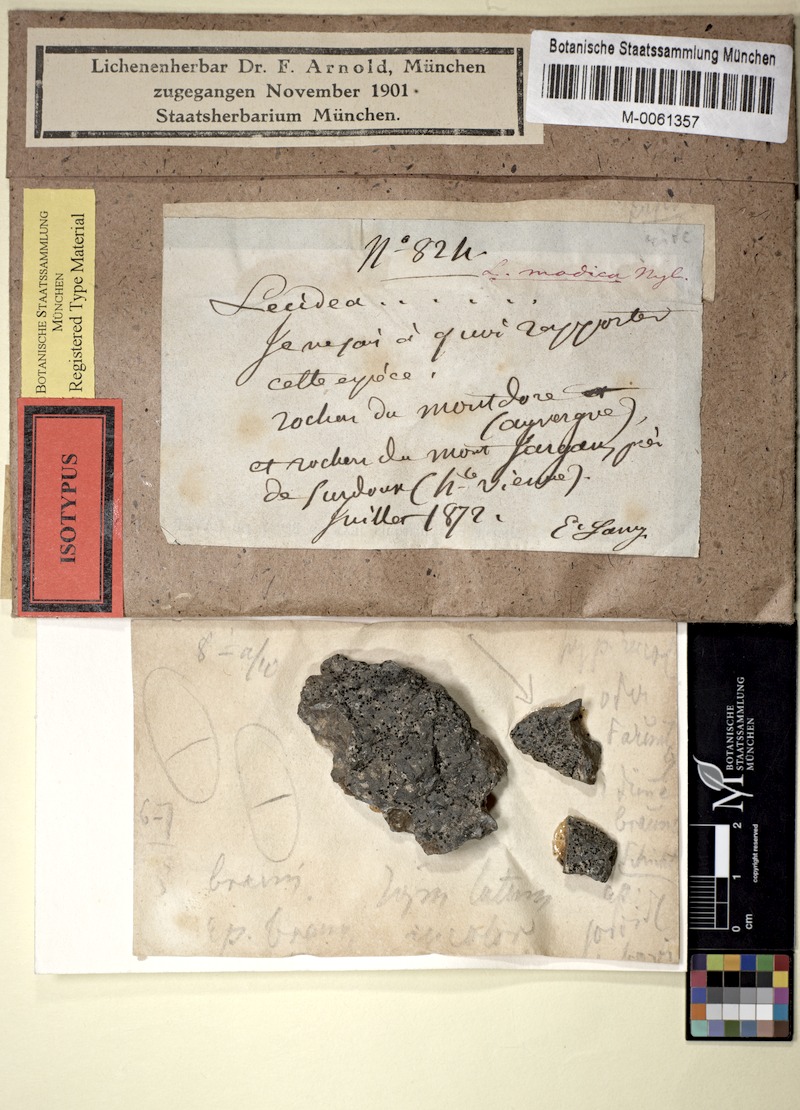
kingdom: Fungi
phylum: Ascomycota
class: Lecanoromycetes
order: Caliciales
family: Caliciaceae
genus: Buellia
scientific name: Buellia vilis
